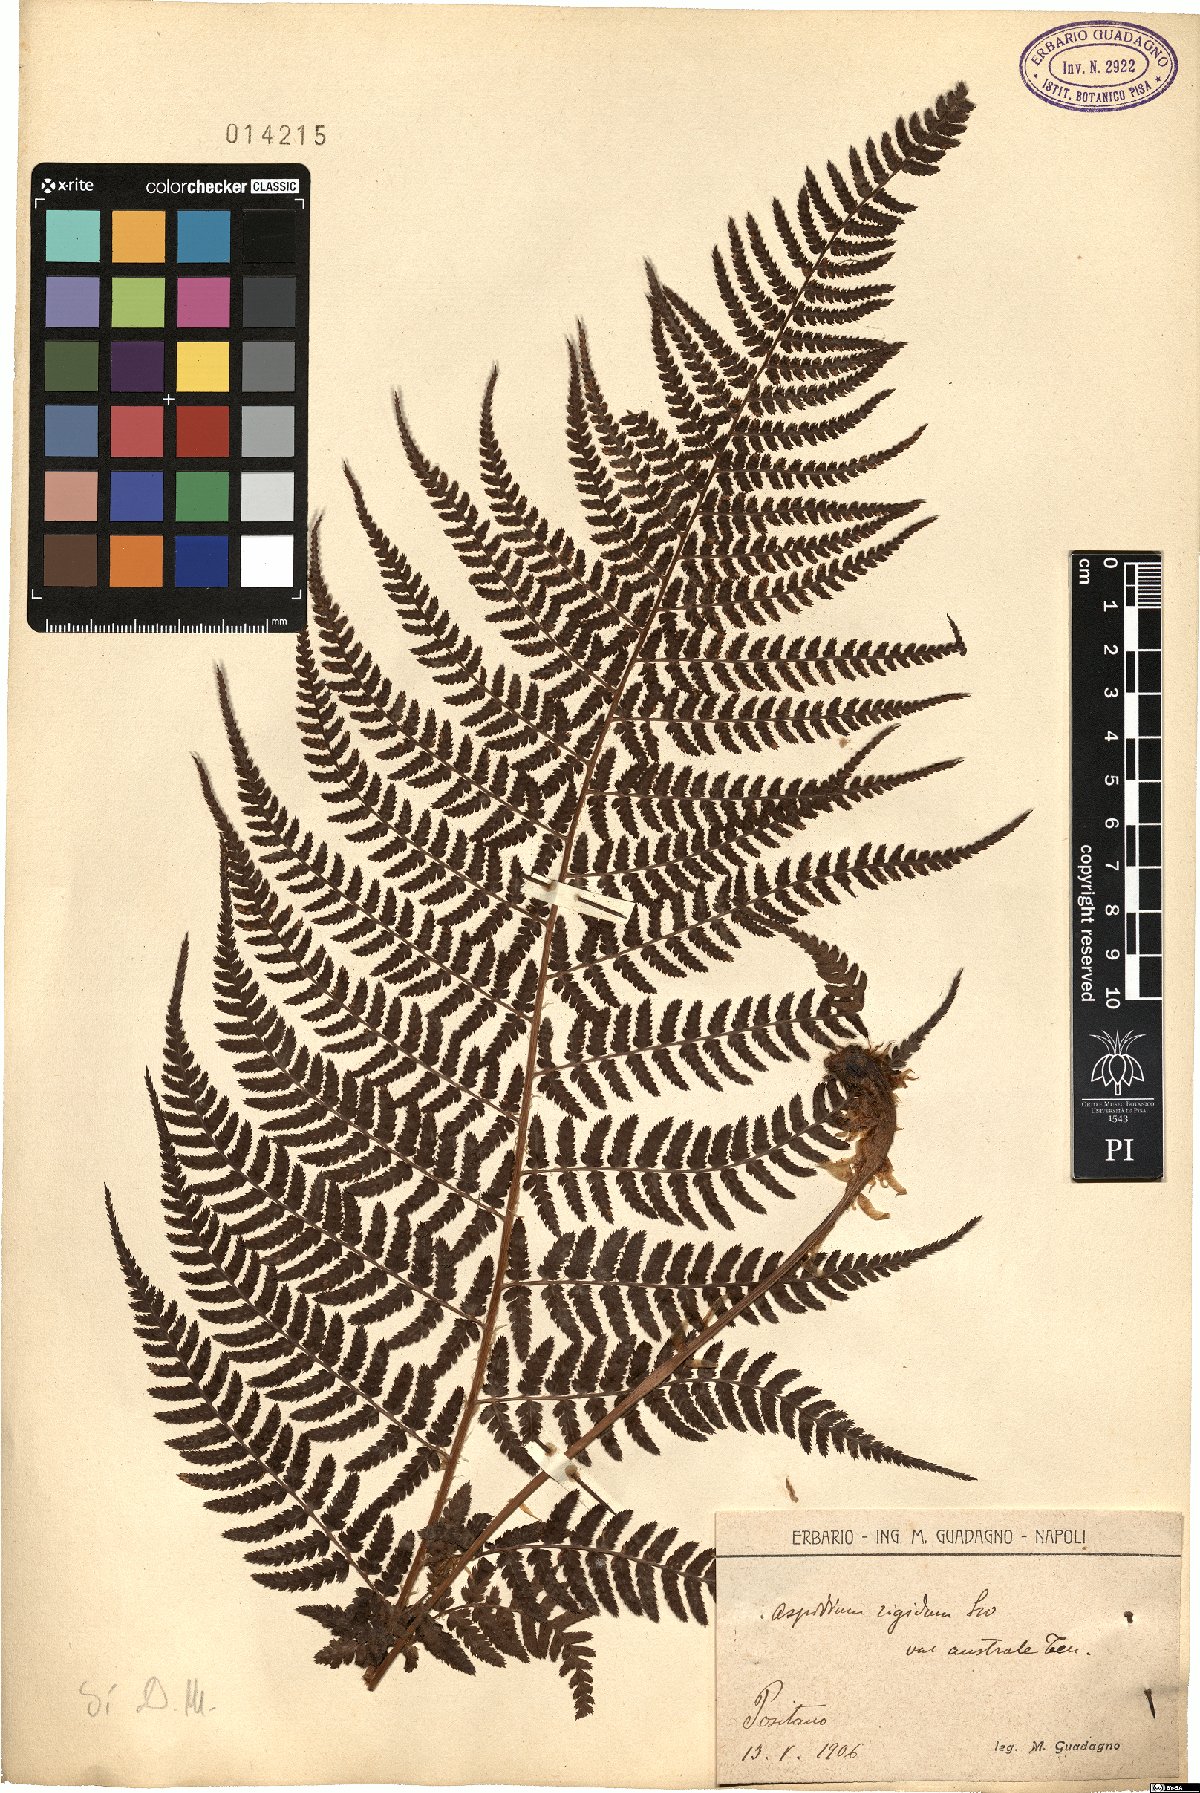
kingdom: Plantae
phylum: Tracheophyta
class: Polypodiopsida
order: Polypodiales
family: Dryopteridaceae
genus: Dryopteris
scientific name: Dryopteris pallida
